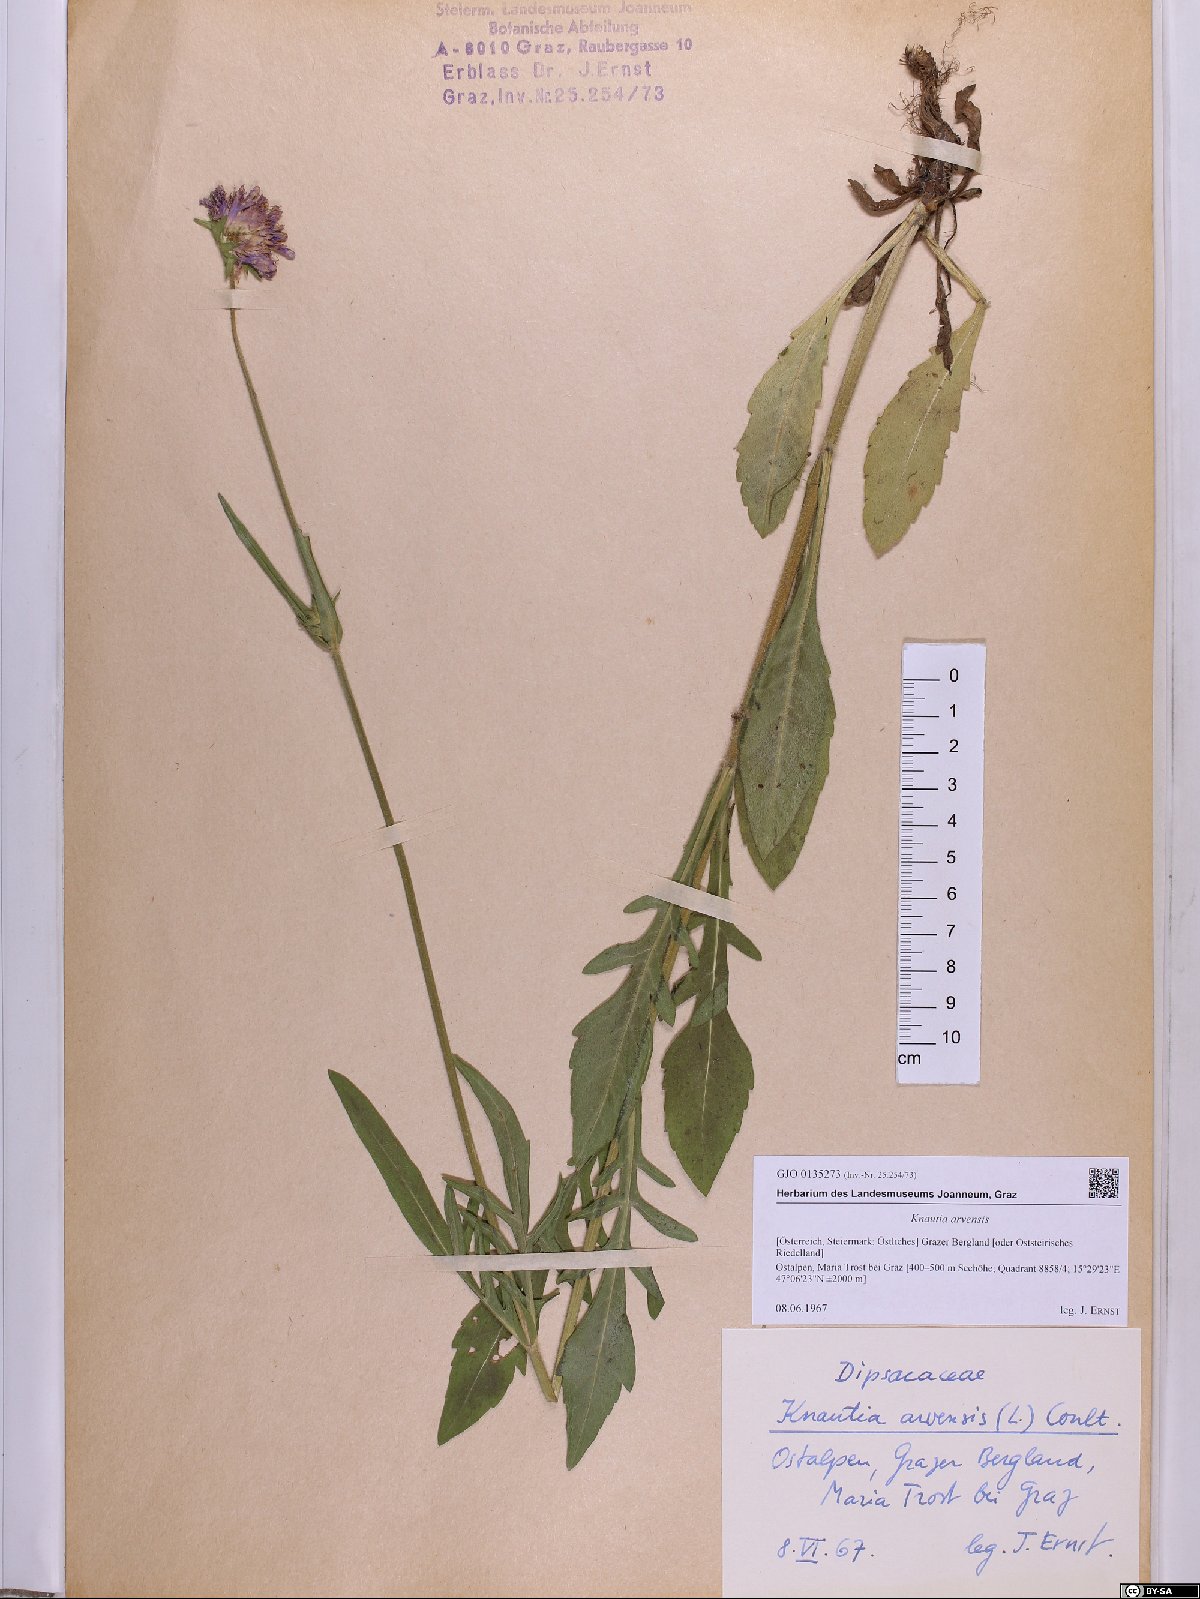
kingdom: Plantae
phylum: Tracheophyta
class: Magnoliopsida
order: Dipsacales
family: Caprifoliaceae
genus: Knautia
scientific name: Knautia arvensis
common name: Field scabiosa
